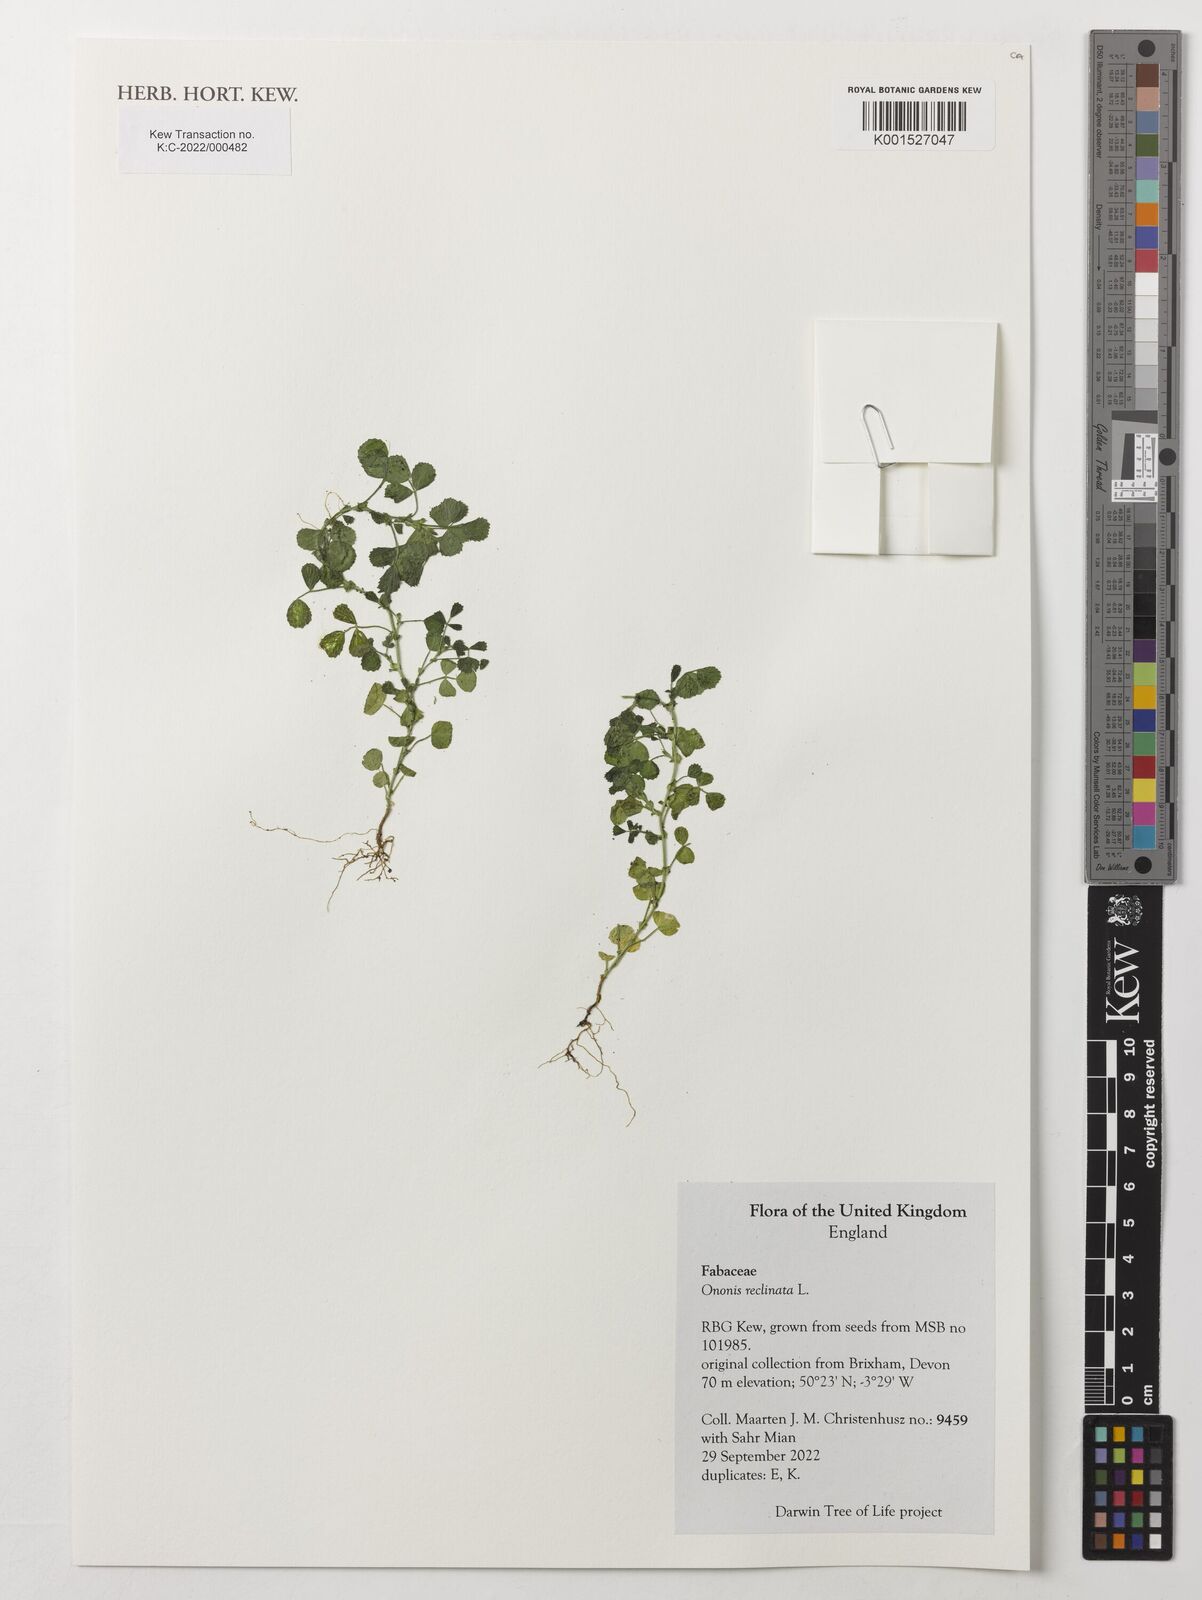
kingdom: Plantae
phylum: Tracheophyta
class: Magnoliopsida
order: Fabales
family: Fabaceae
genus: Ononis
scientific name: Ononis reclinata
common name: Small restharrow
